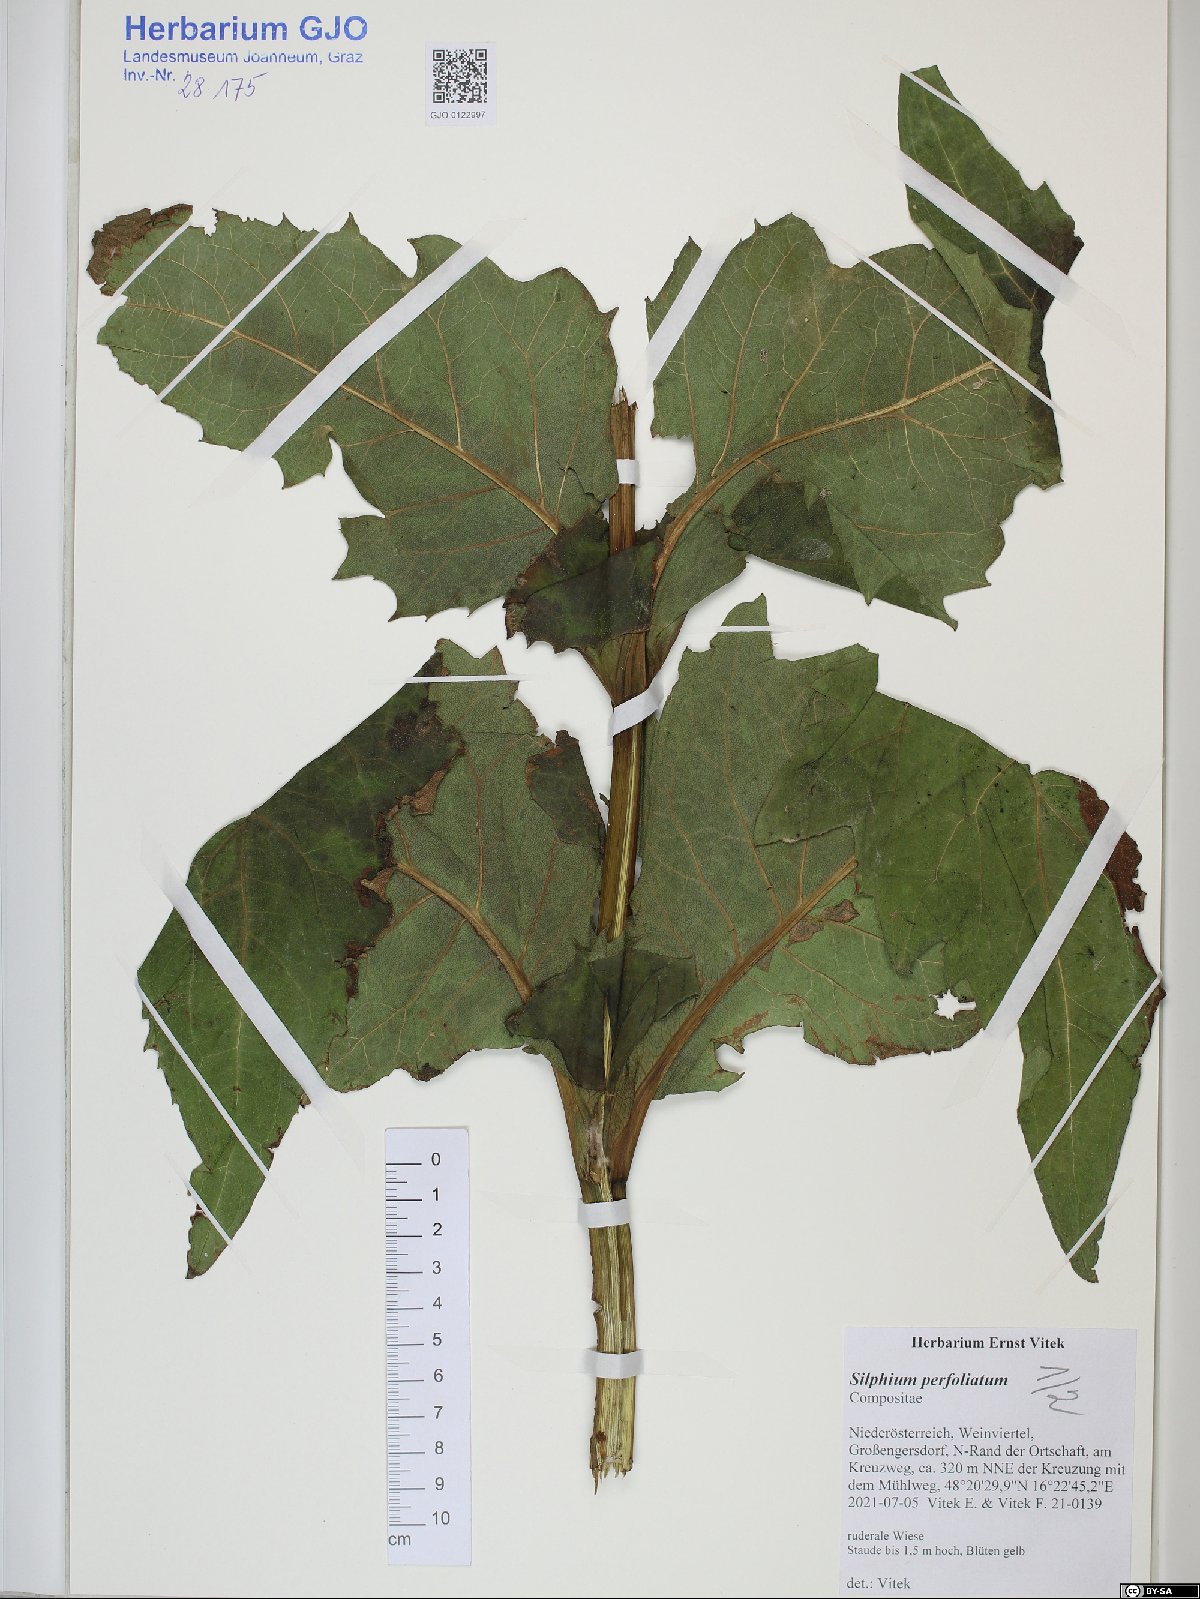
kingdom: Plantae
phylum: Tracheophyta
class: Magnoliopsida
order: Asterales
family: Asteraceae
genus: Silphium
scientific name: Silphium perfoliatum
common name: Cup-plant
